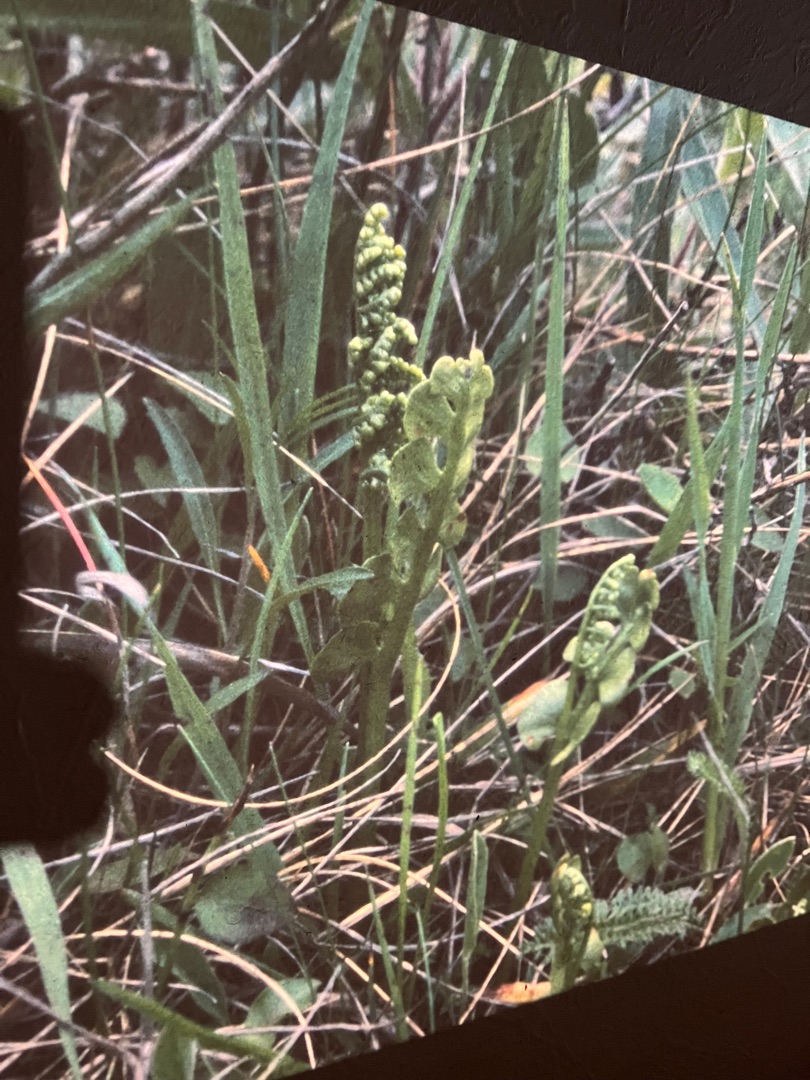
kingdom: Plantae
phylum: Tracheophyta
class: Polypodiopsida
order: Ophioglossales
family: Ophioglossaceae
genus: Botrychium
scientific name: Botrychium lunaria
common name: Almindelig månerude
